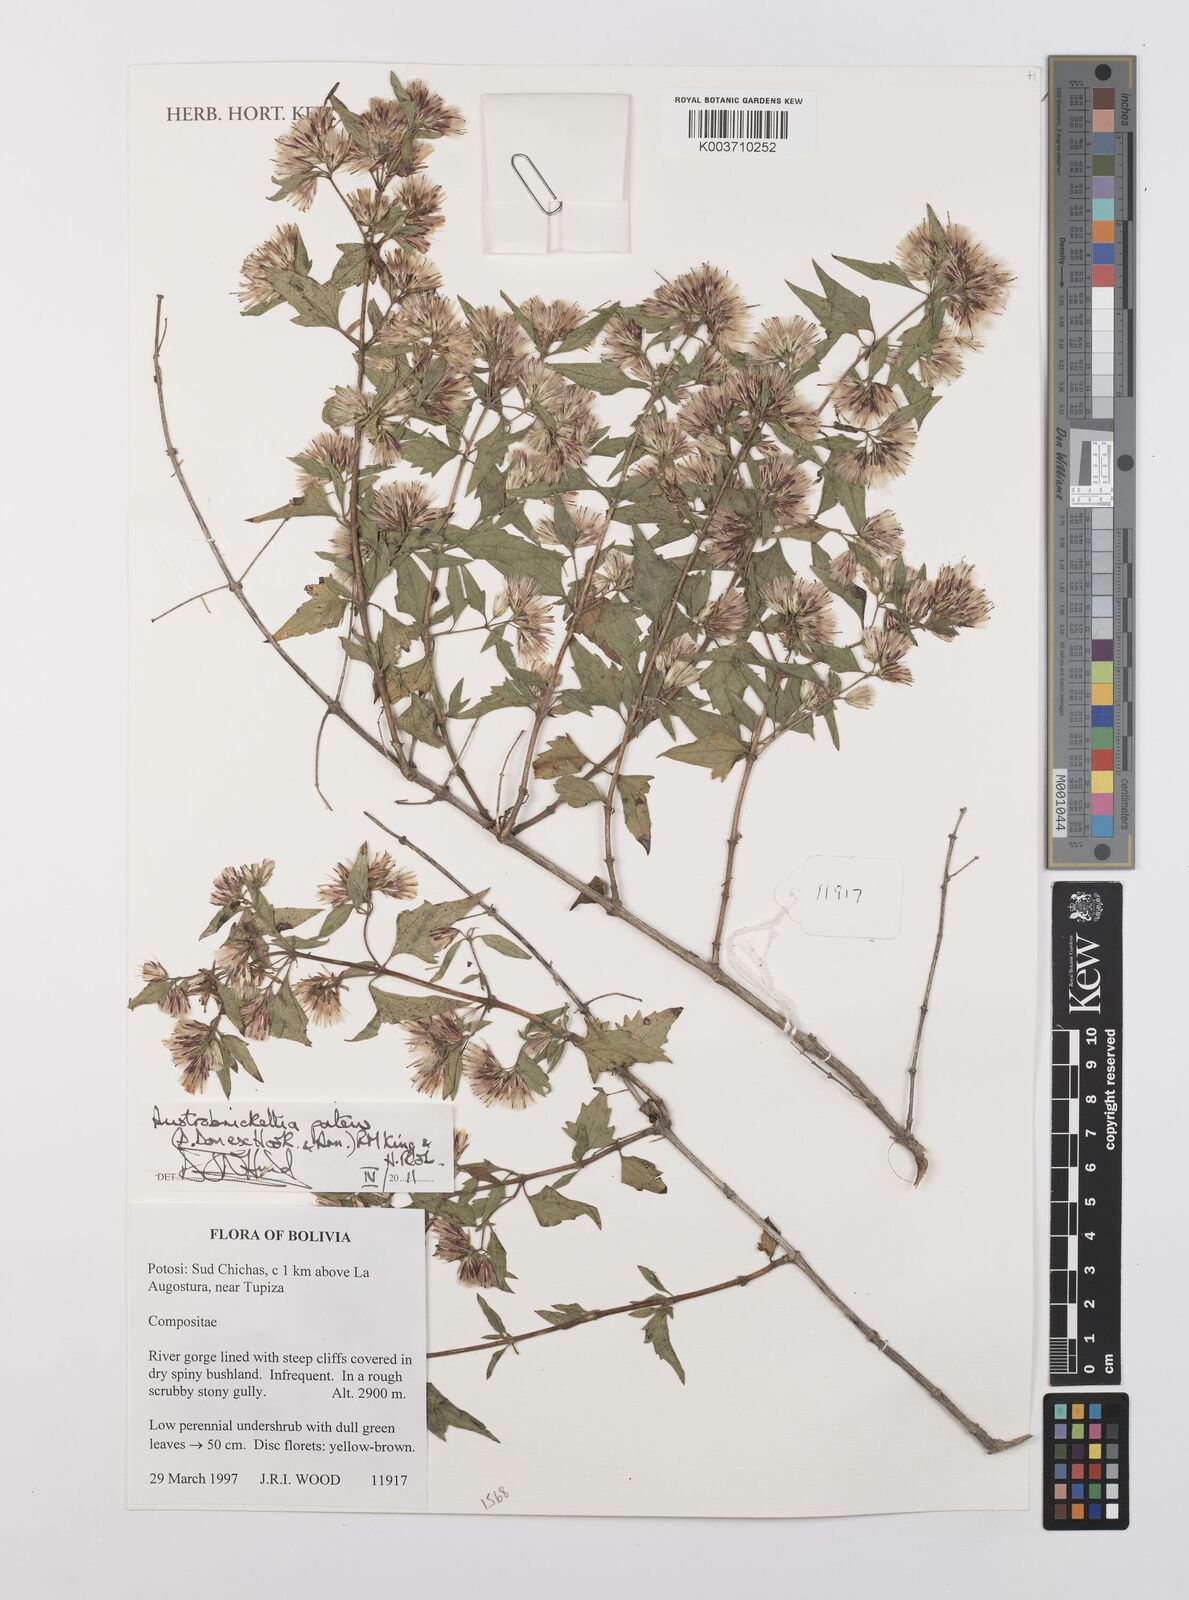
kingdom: Plantae
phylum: Tracheophyta
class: Magnoliopsida
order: Asterales
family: Asteraceae
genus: Austrobrickellia
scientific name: Austrobrickellia patens
